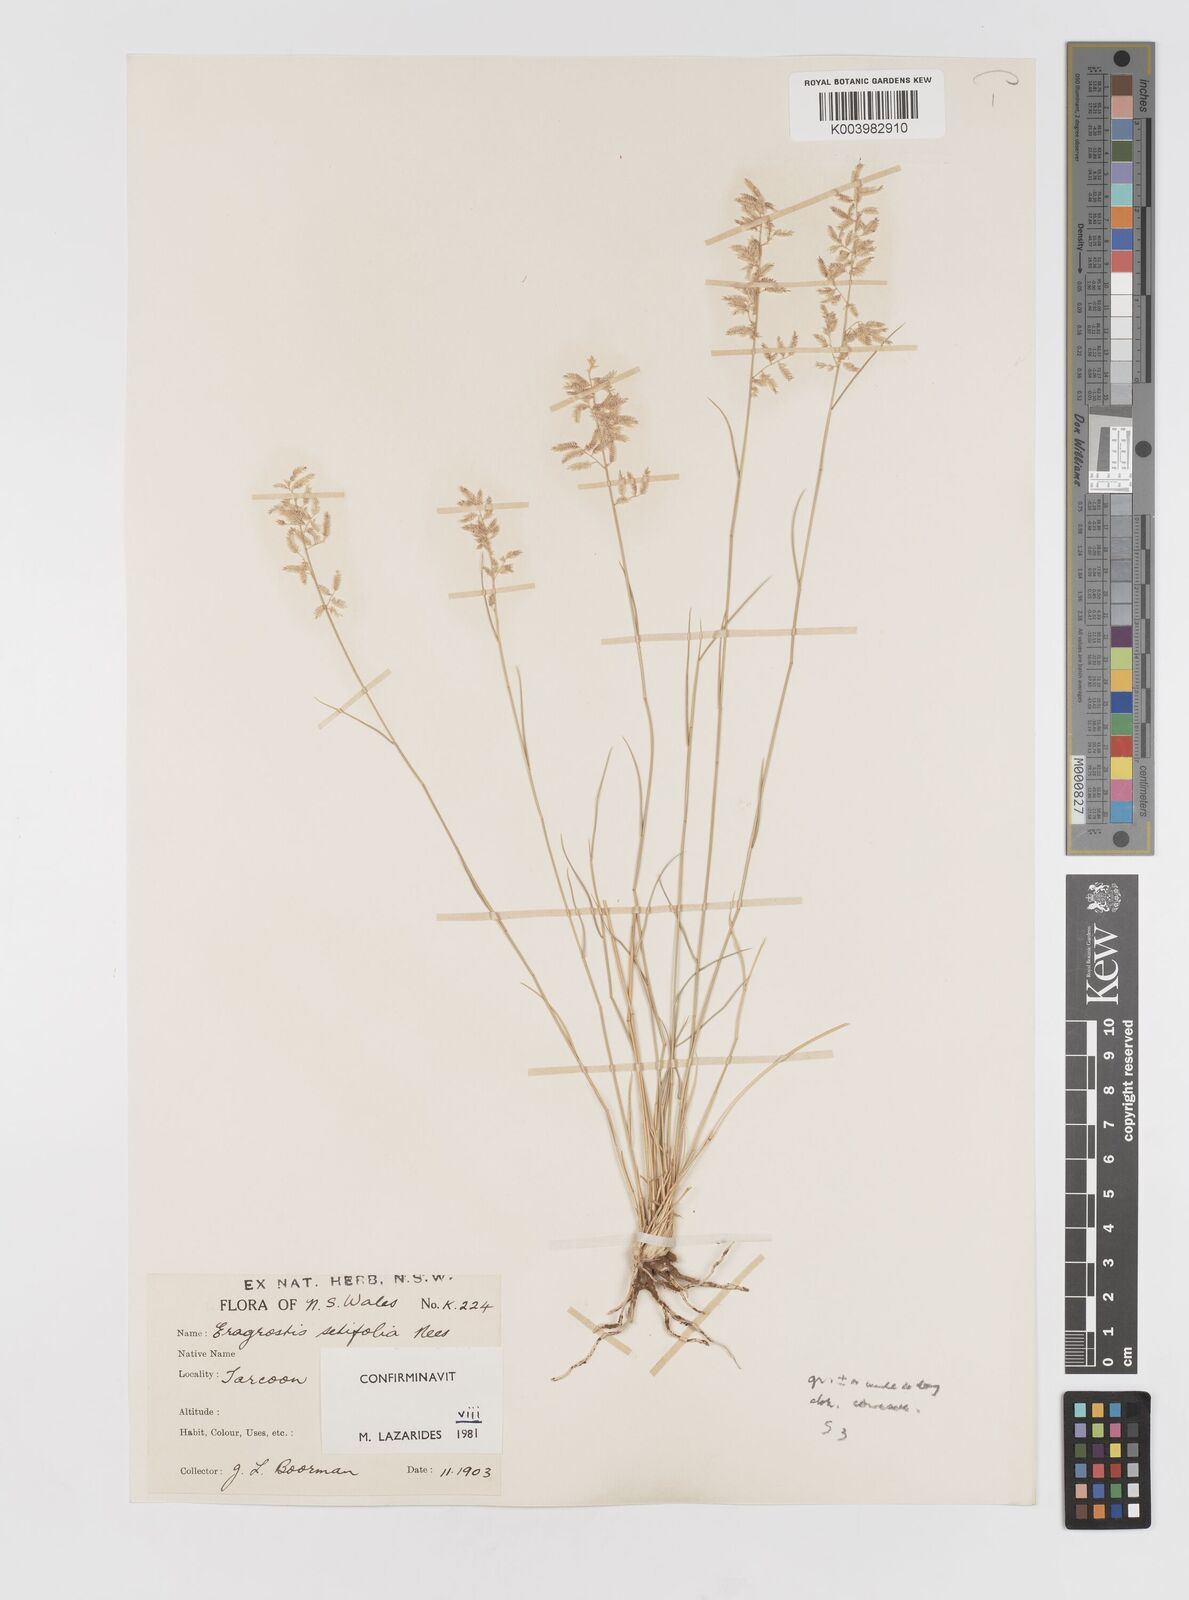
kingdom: Plantae
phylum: Tracheophyta
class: Liliopsida
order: Poales
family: Poaceae
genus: Eragrostis
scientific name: Eragrostis setifolia
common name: Bristleleaf lovegrass
